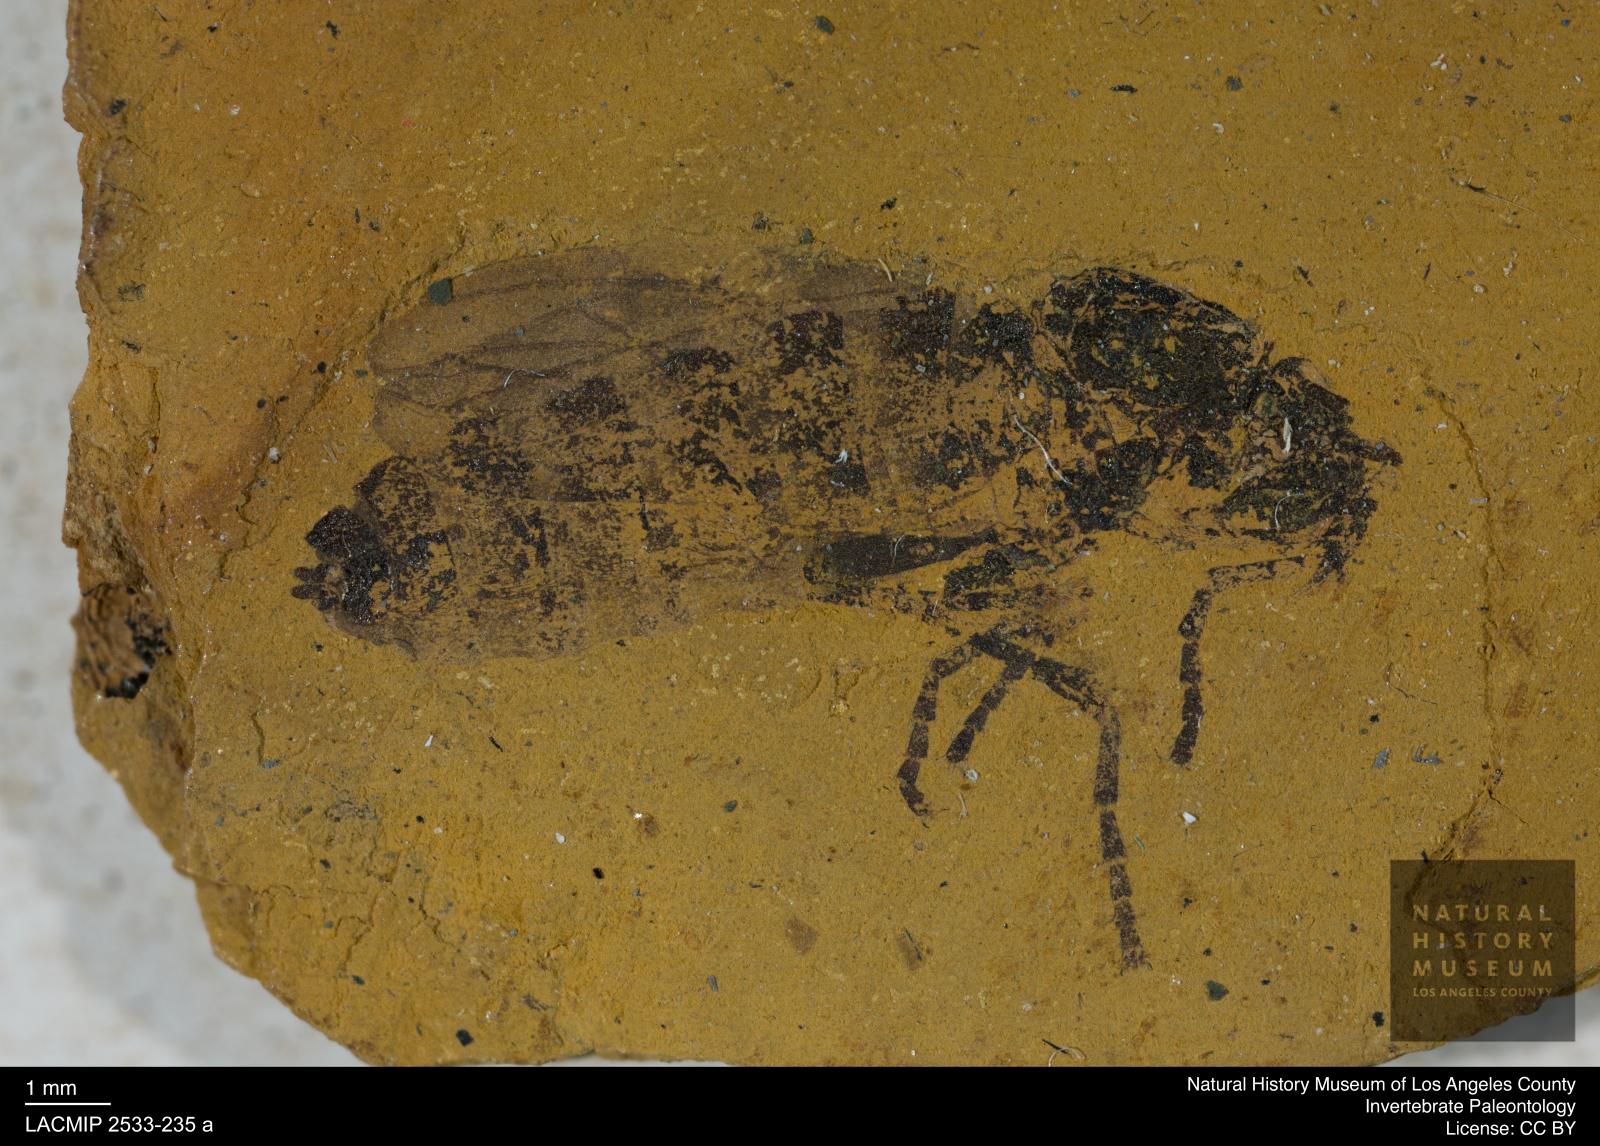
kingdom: Animalia
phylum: Arthropoda
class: Insecta
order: Diptera
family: Bibionidae
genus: Bibio
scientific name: Bibio germari
